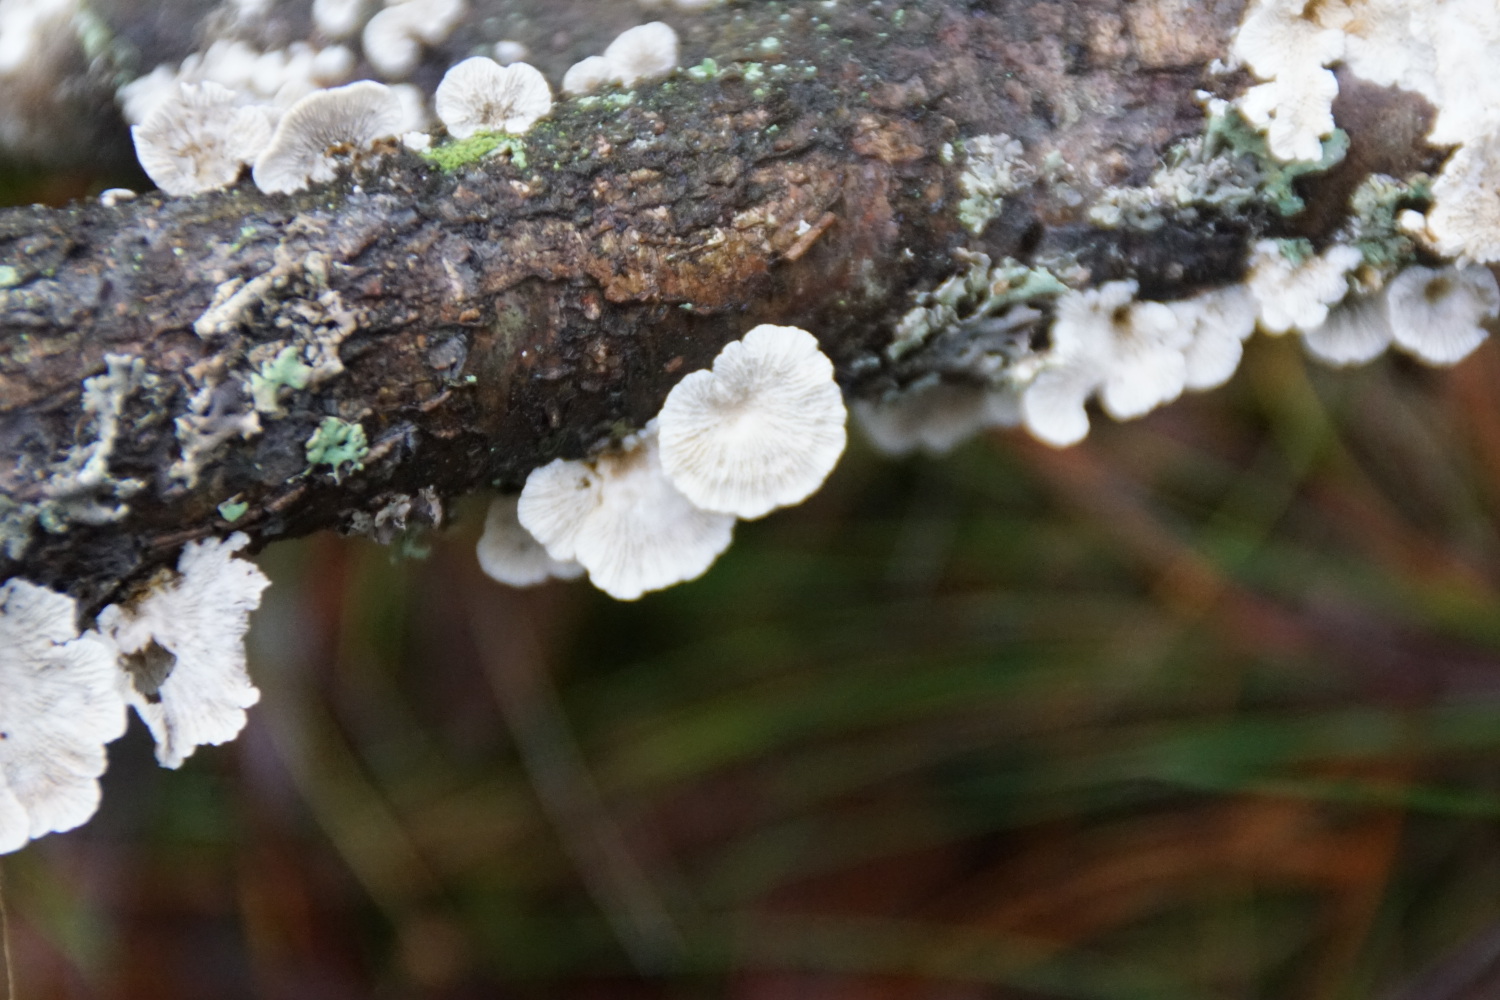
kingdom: Fungi
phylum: Basidiomycota
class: Agaricomycetes
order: Amylocorticiales
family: Amylocorticiaceae
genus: Plicaturopsis
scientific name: Plicaturopsis crispa
